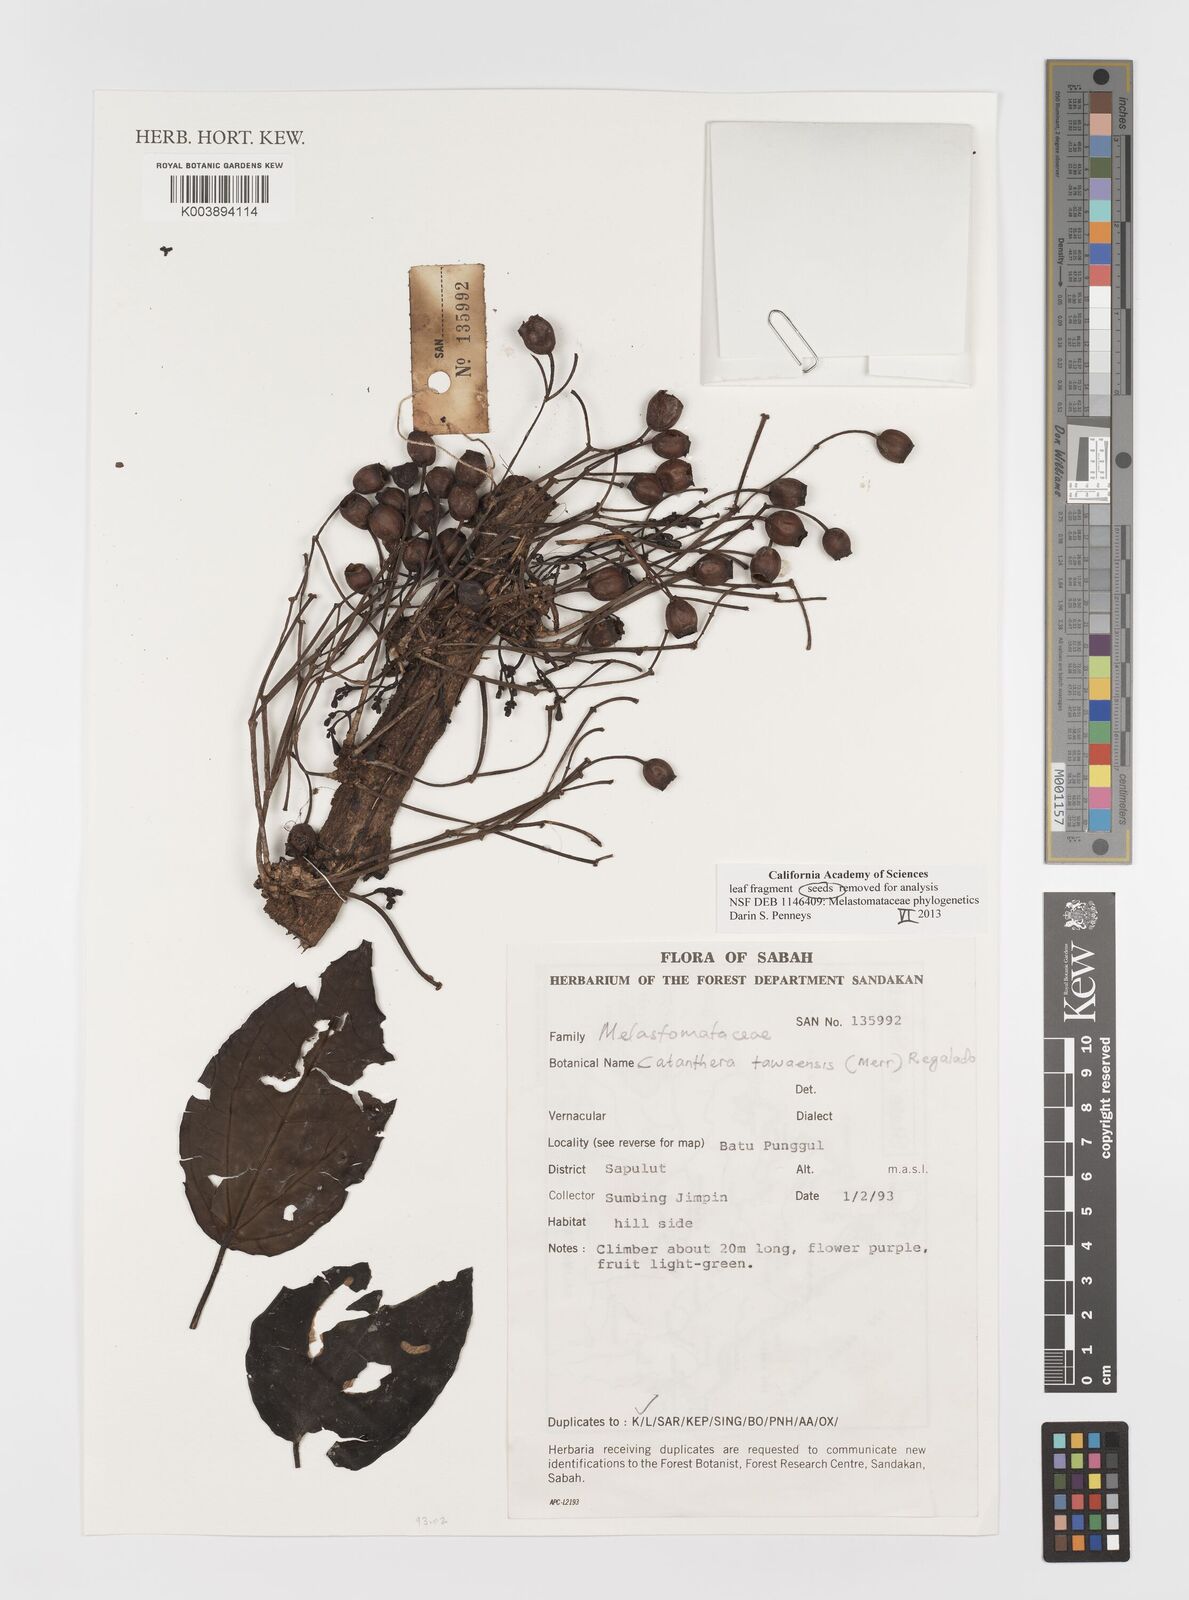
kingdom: Plantae
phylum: Tracheophyta
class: Magnoliopsida
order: Myrtales
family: Melastomataceae
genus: Catanthera
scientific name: Catanthera tawaensis
